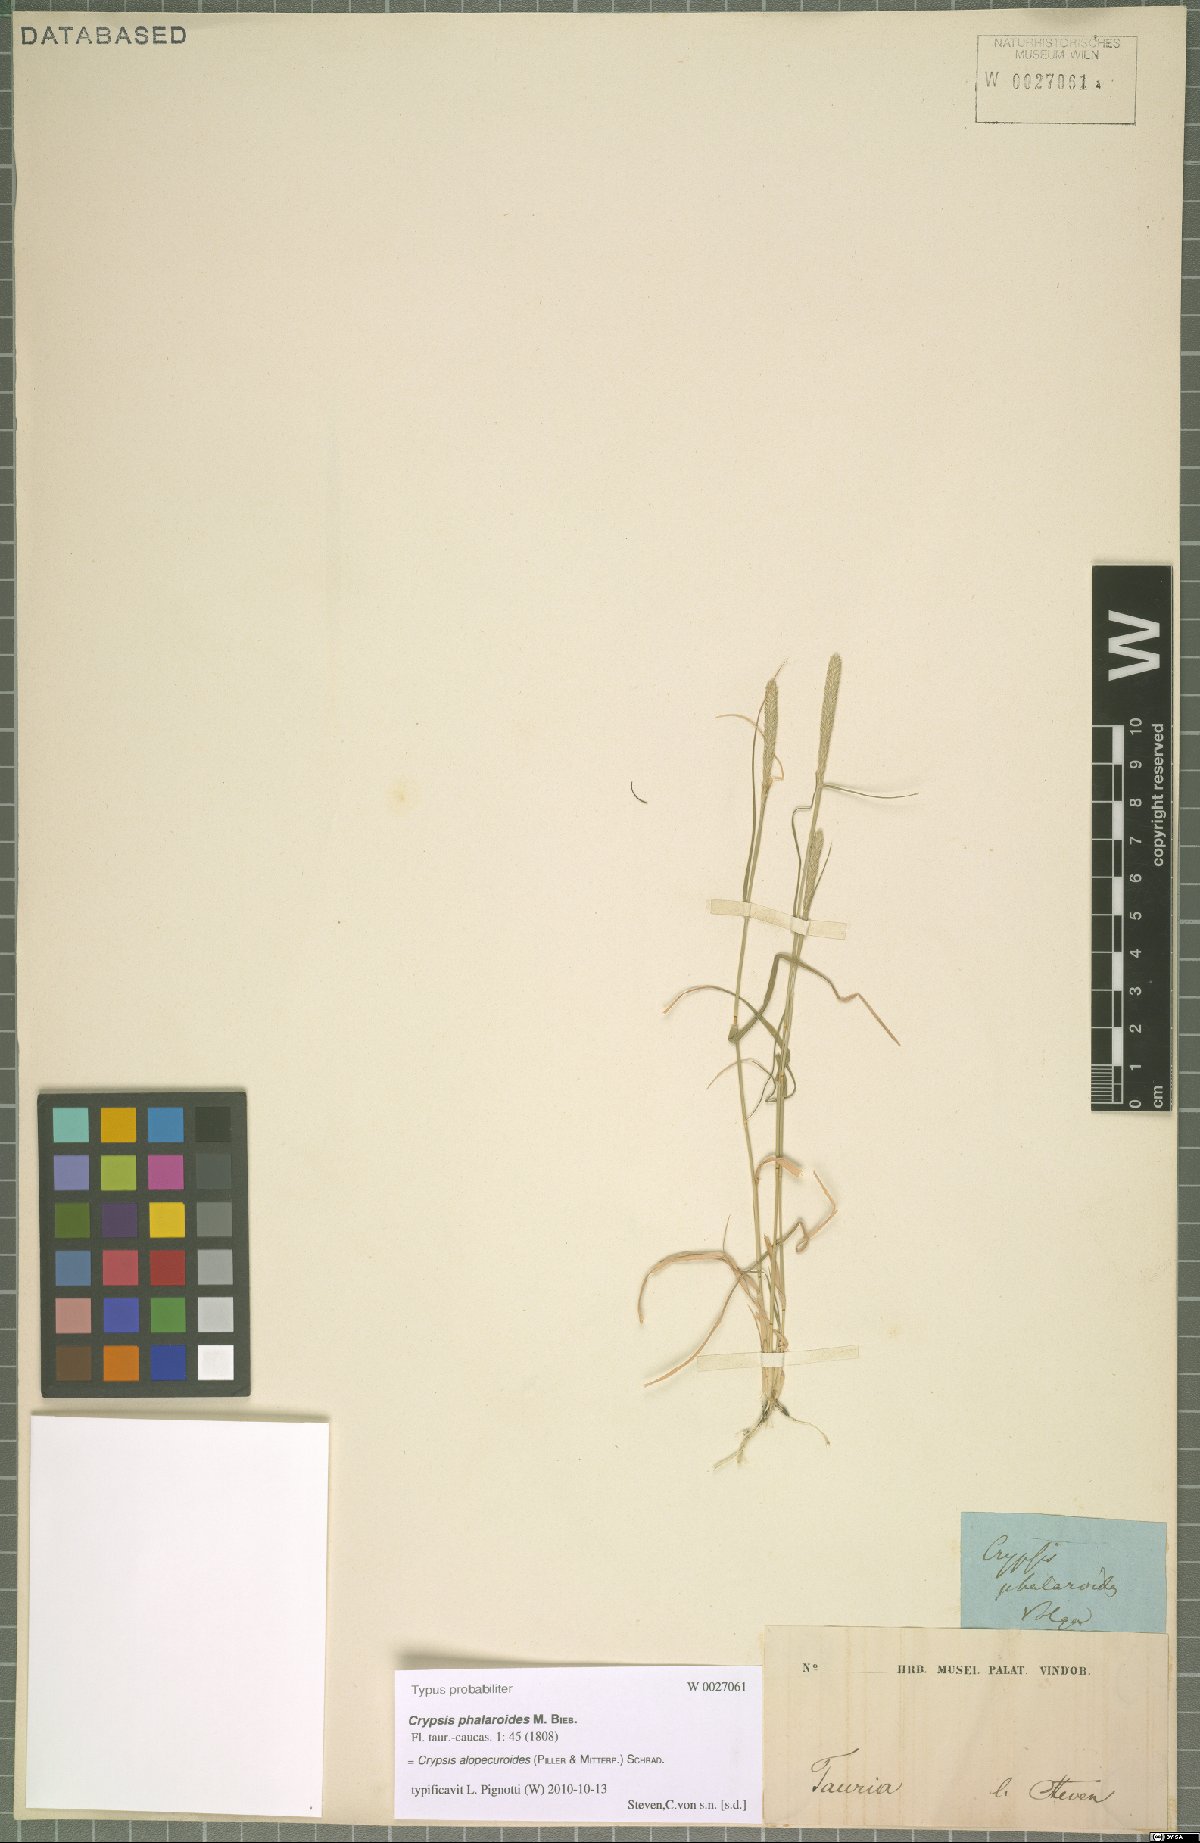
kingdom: Plantae
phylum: Tracheophyta
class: Liliopsida
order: Poales
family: Poaceae
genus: Sporobolus
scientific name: Sporobolus alopecuroides
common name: Foxtail pricklegrass
